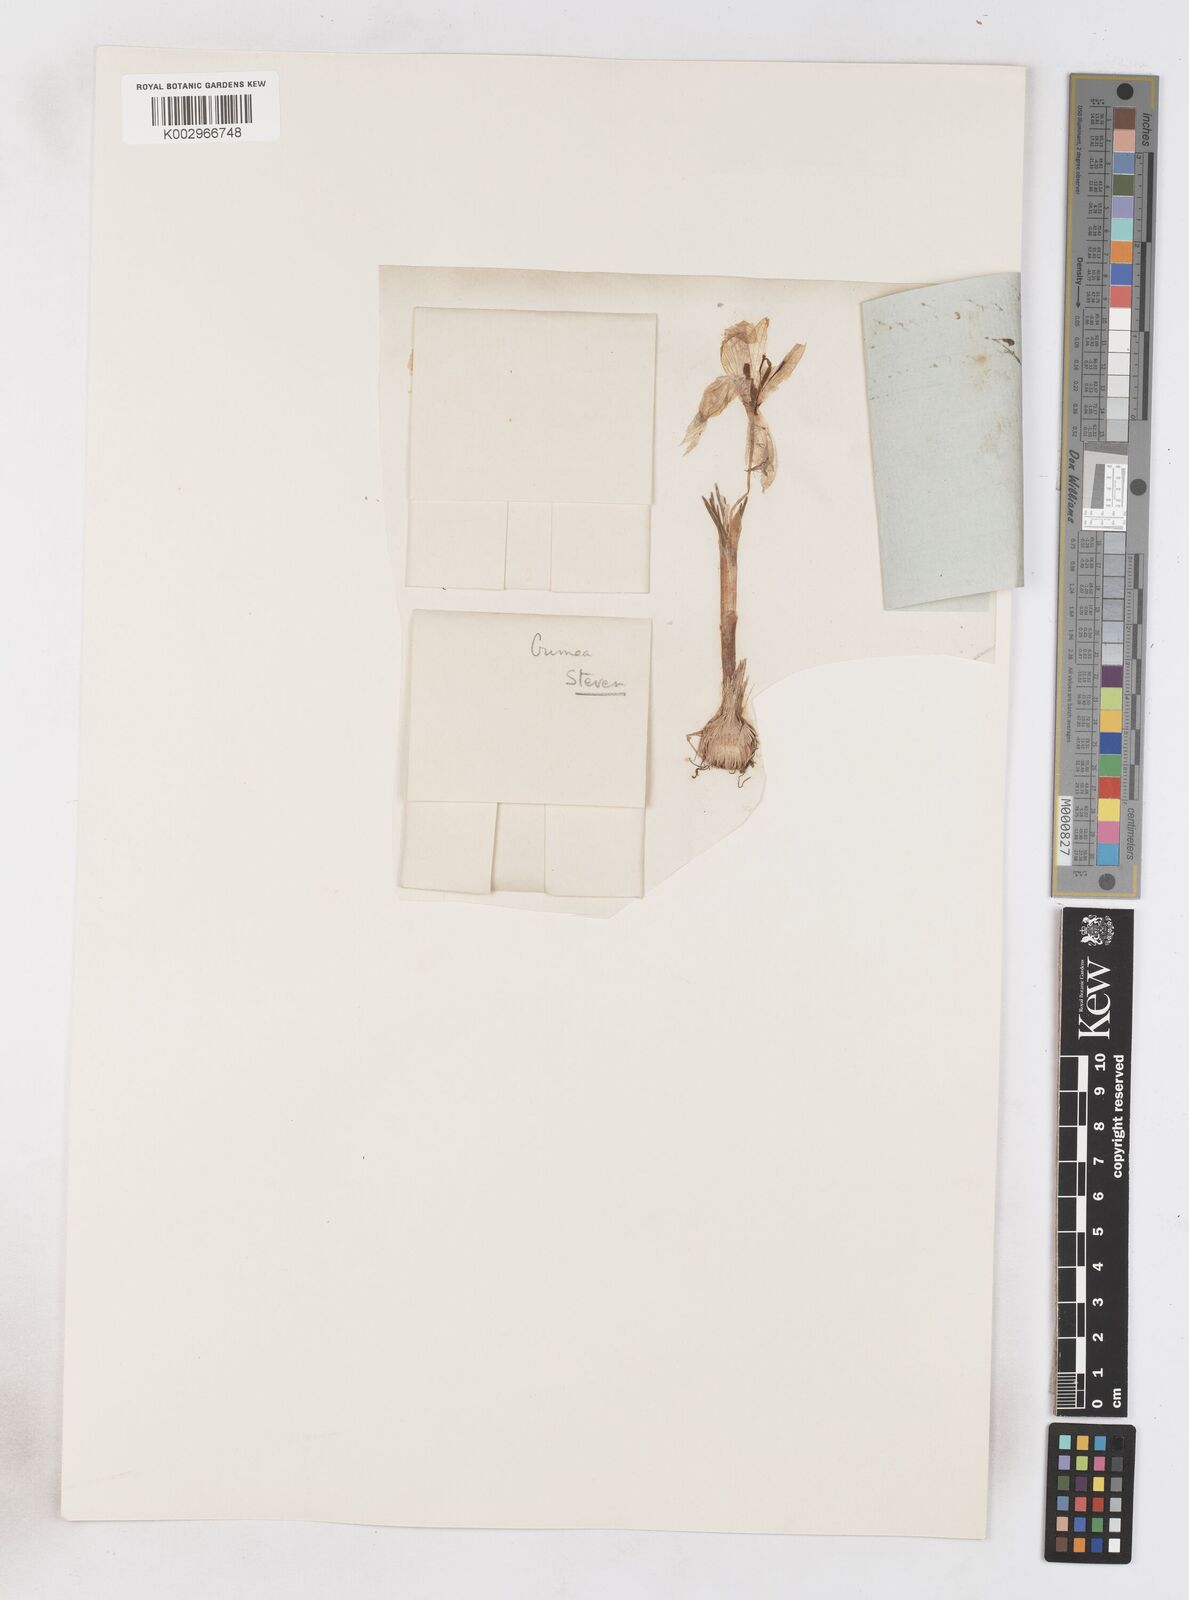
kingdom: Plantae
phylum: Tracheophyta
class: Liliopsida
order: Asparagales
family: Iridaceae
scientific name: Iridaceae
